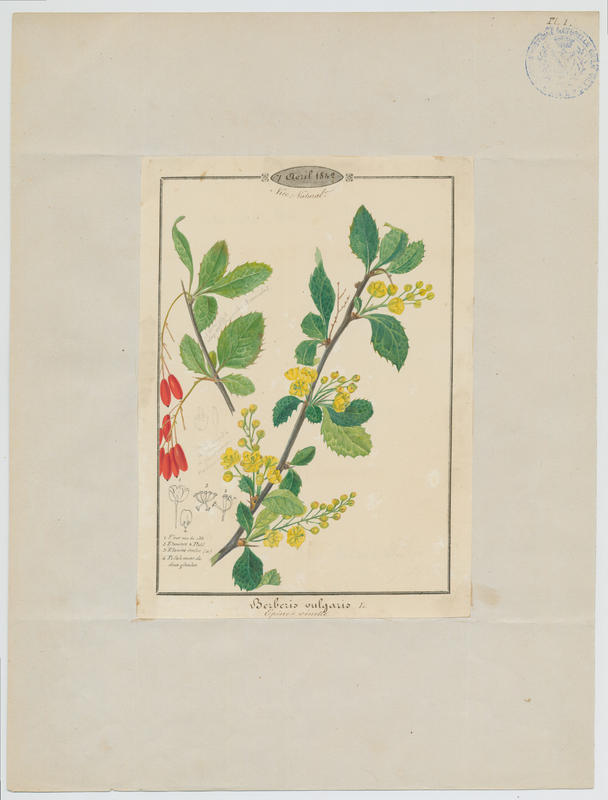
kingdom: Plantae
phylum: Tracheophyta
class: Magnoliopsida
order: Ranunculales
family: Berberidaceae
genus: Berberis
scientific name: Berberis vulgaris
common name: Barberry
